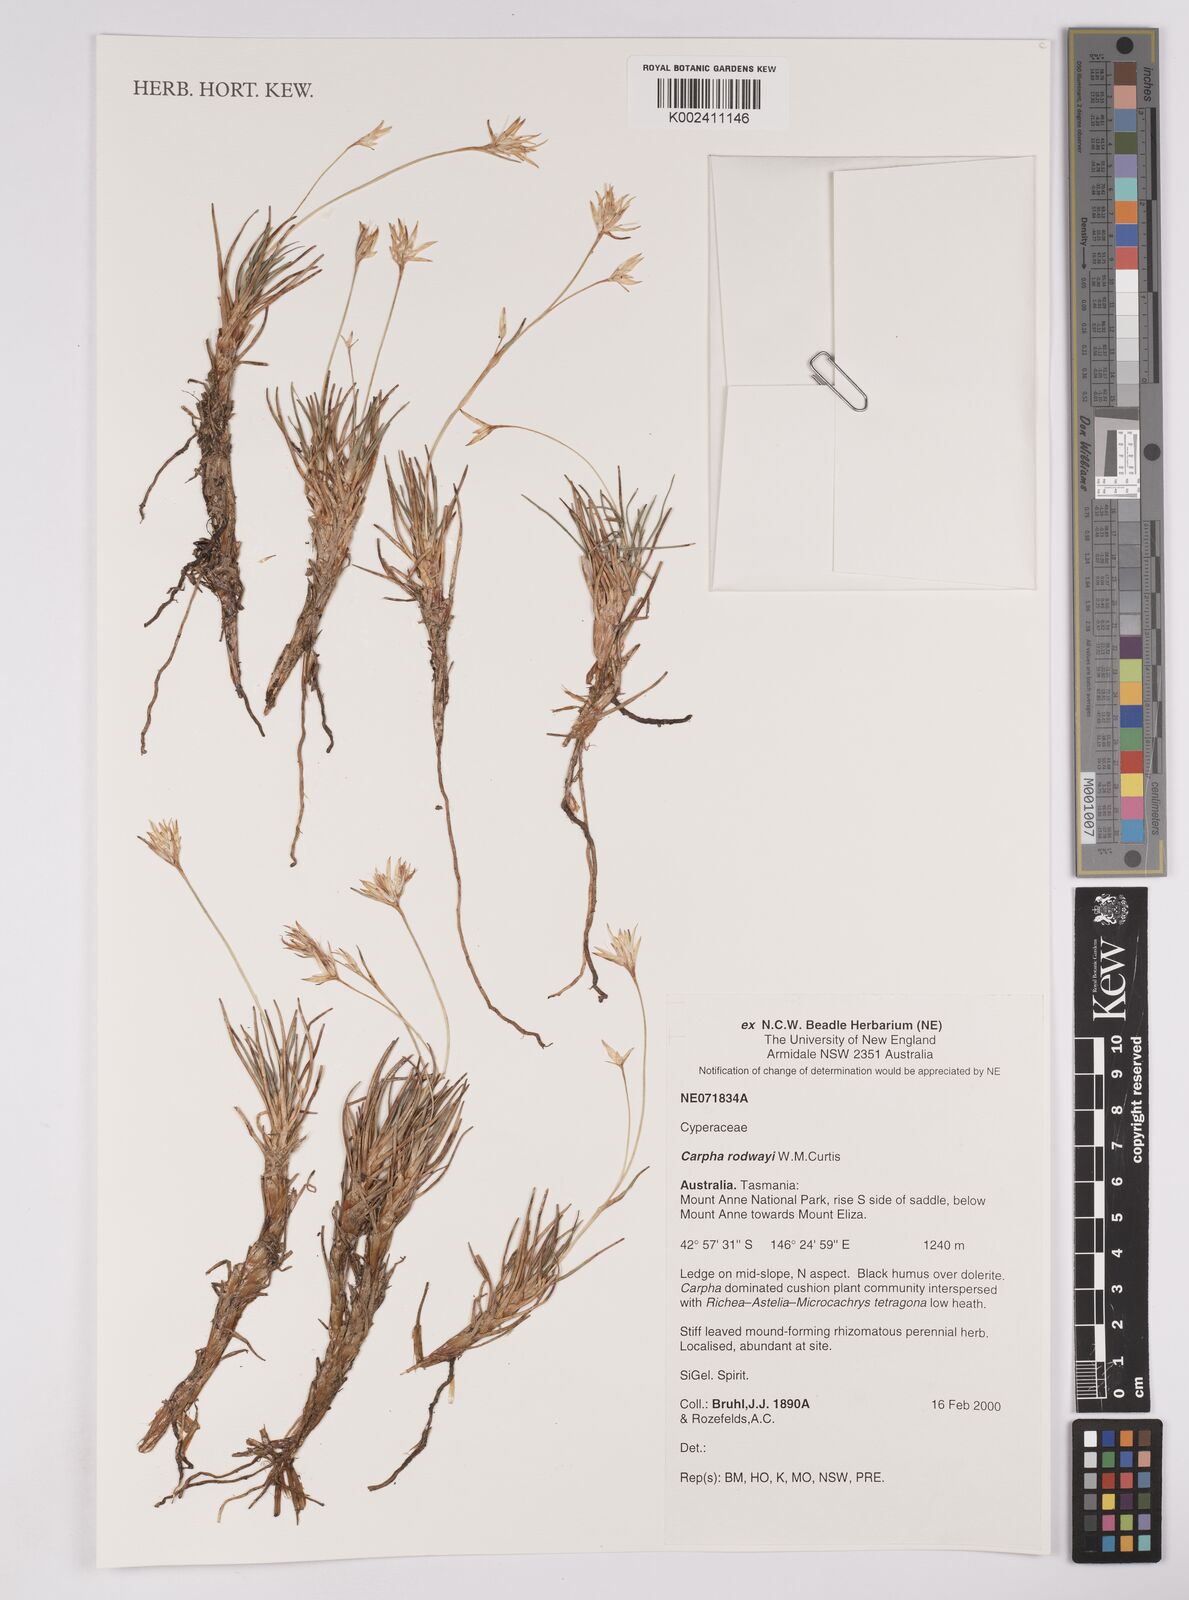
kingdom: Plantae
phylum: Tracheophyta
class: Liliopsida
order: Poales
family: Cyperaceae
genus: Carpha
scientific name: Carpha rodwayi
